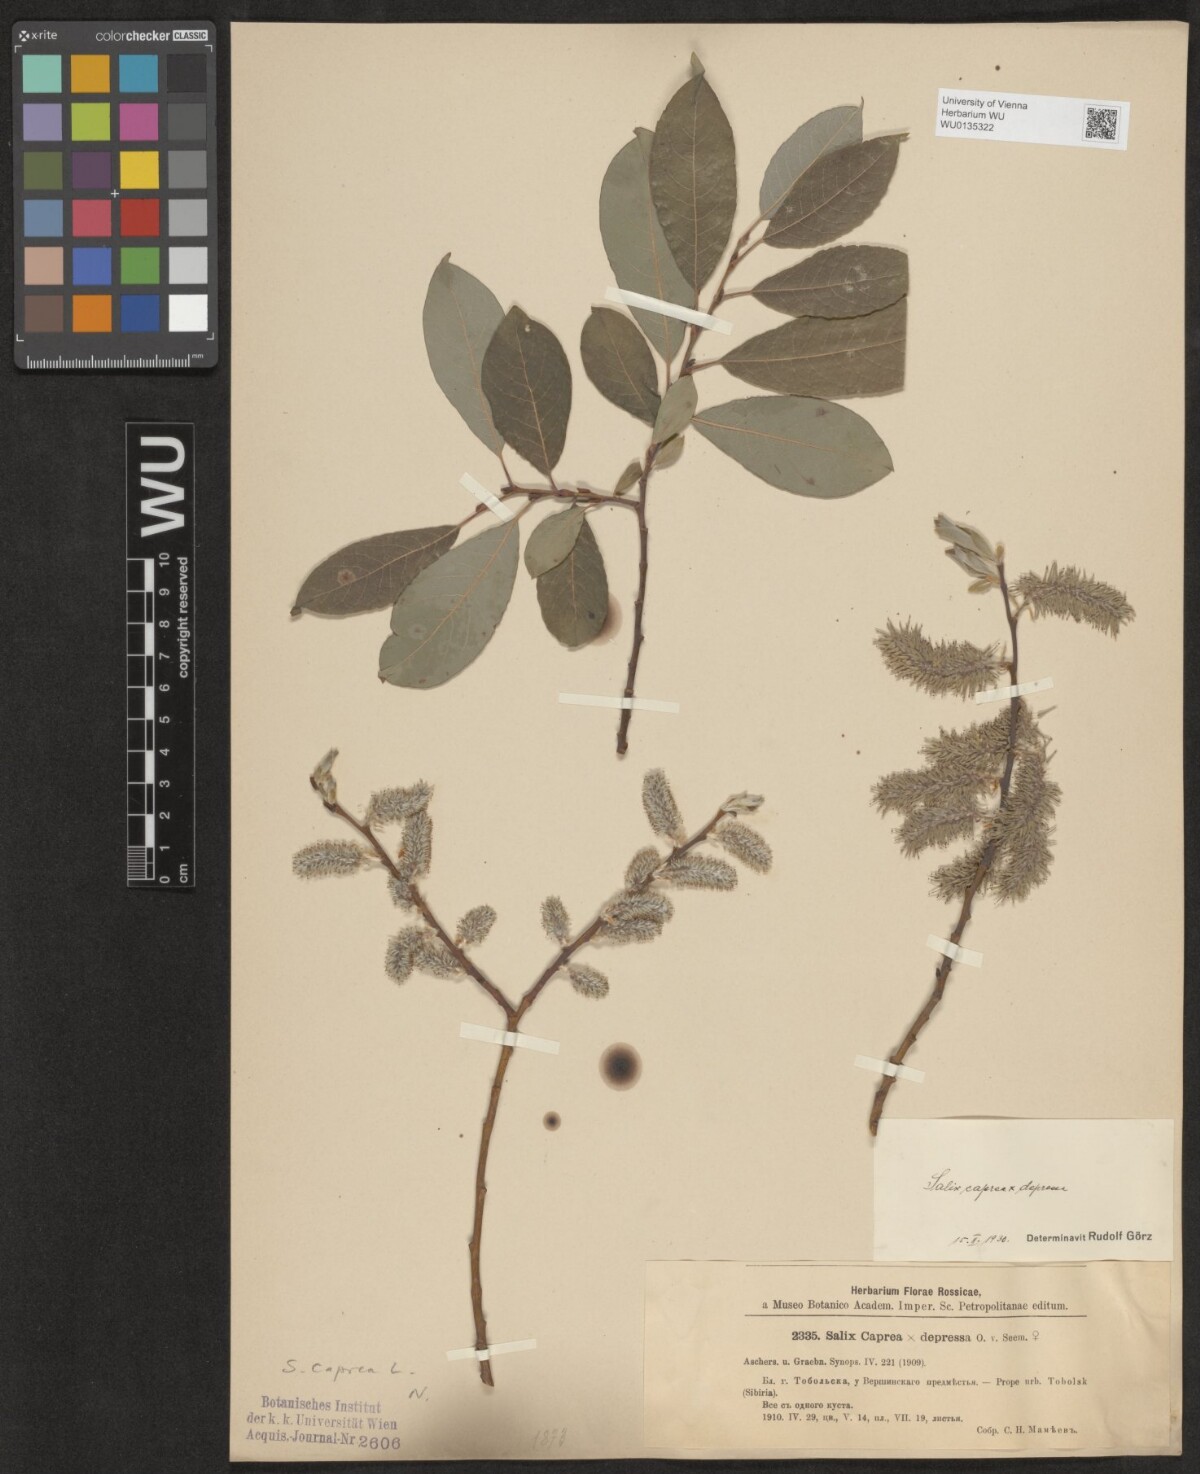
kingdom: Plantae
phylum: Tracheophyta
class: Magnoliopsida
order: Malpighiales
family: Salicaceae
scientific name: Salicaceae
